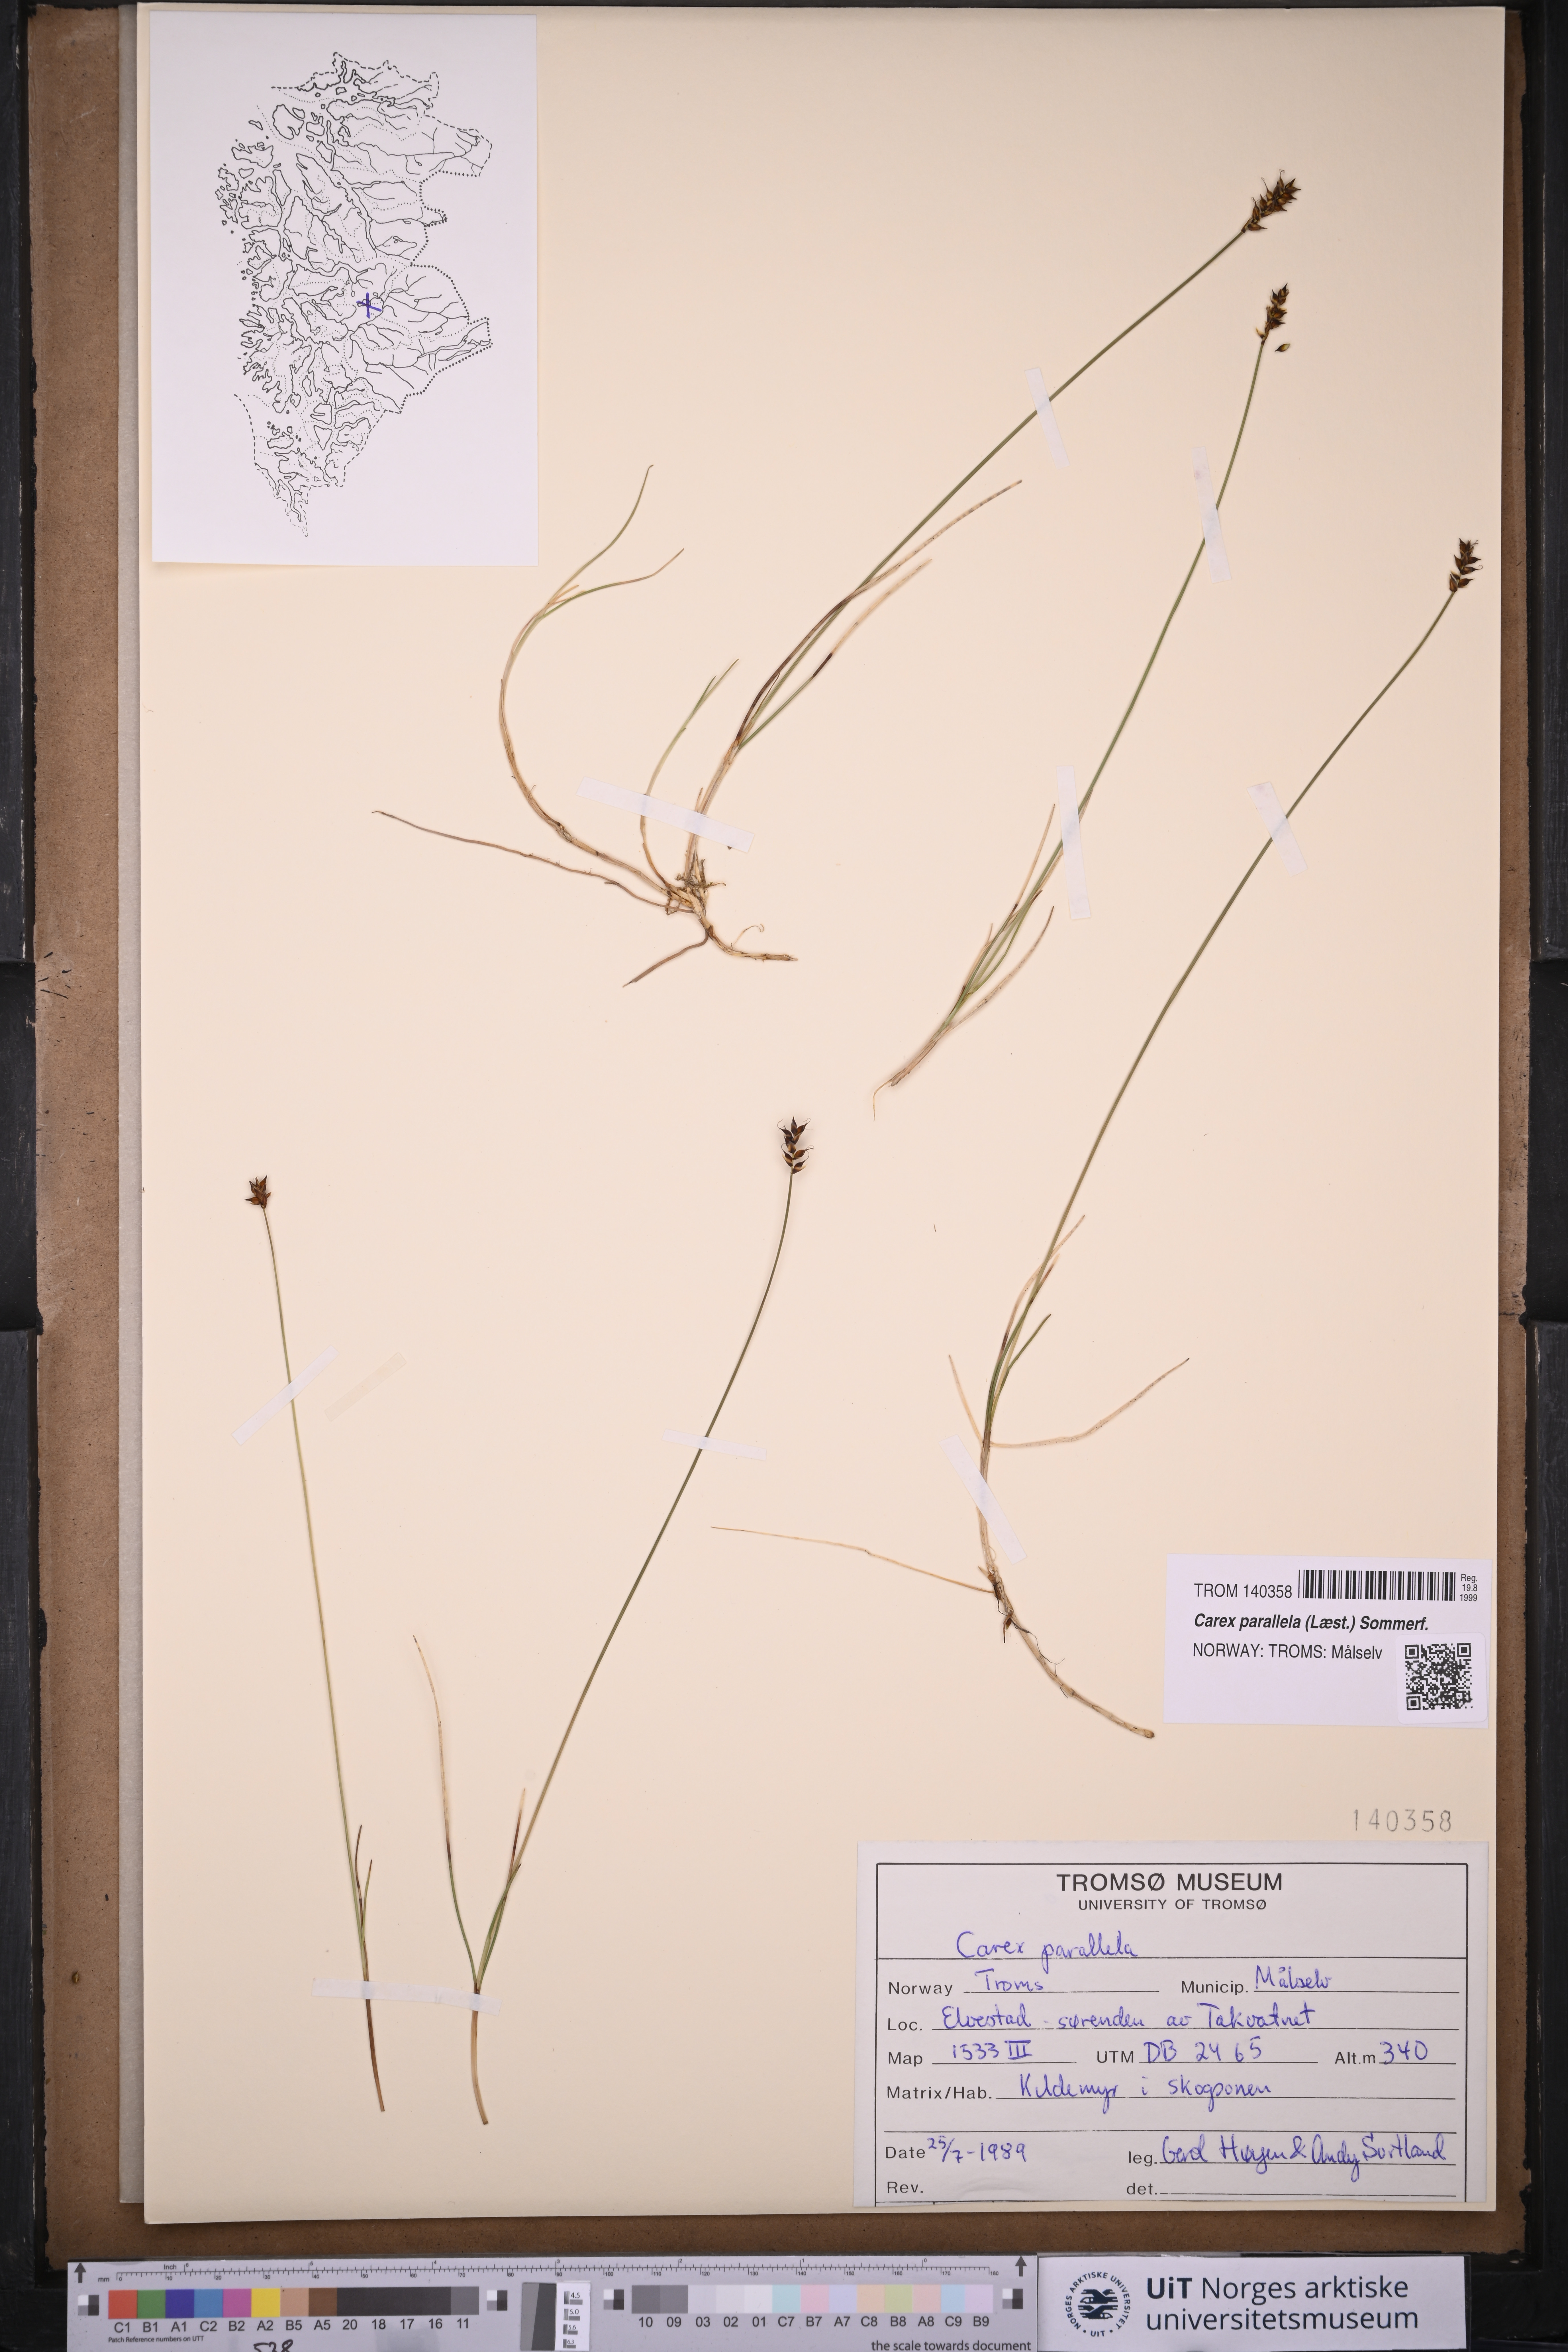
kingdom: Plantae
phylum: Tracheophyta
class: Liliopsida
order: Poales
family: Cyperaceae
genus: Carex
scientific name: Carex parallela
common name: Parallel sedge
